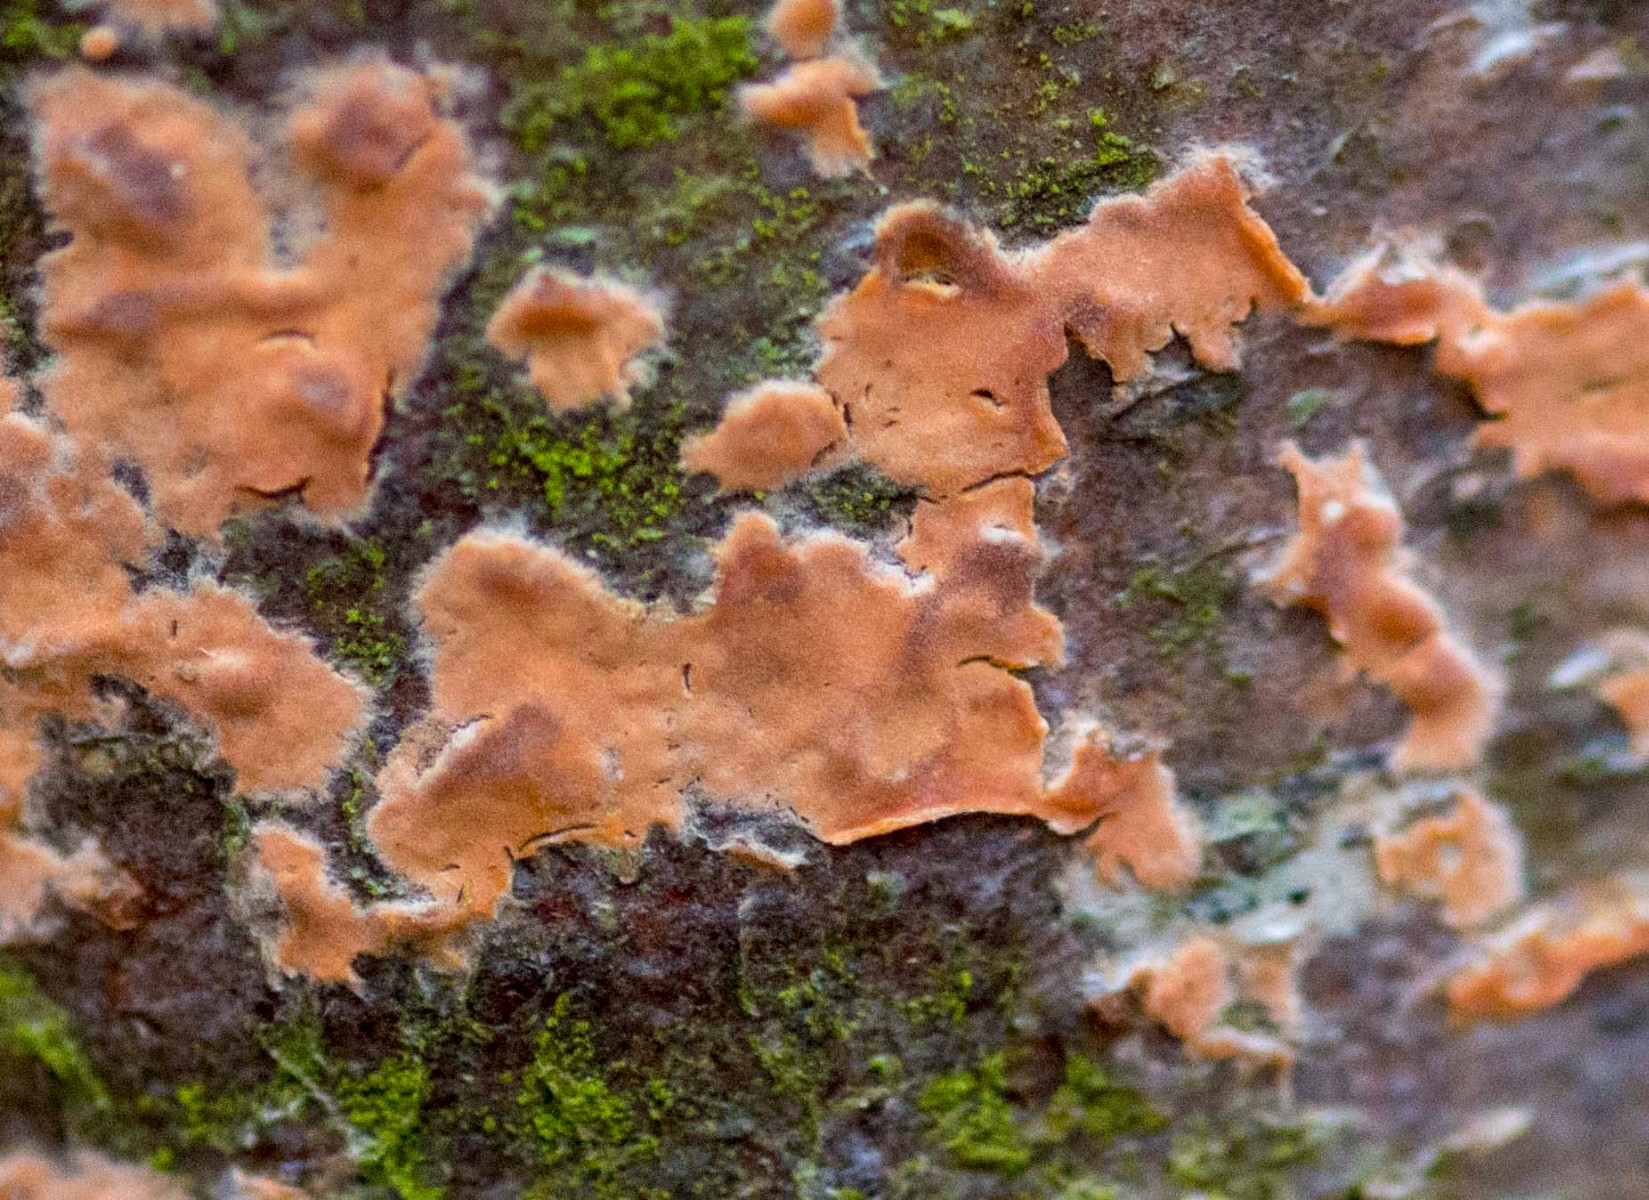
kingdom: Fungi
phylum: Basidiomycota
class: Agaricomycetes
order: Russulales
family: Peniophoraceae
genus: Peniophora
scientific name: Peniophora incarnata
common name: laksefarvet voksskind
